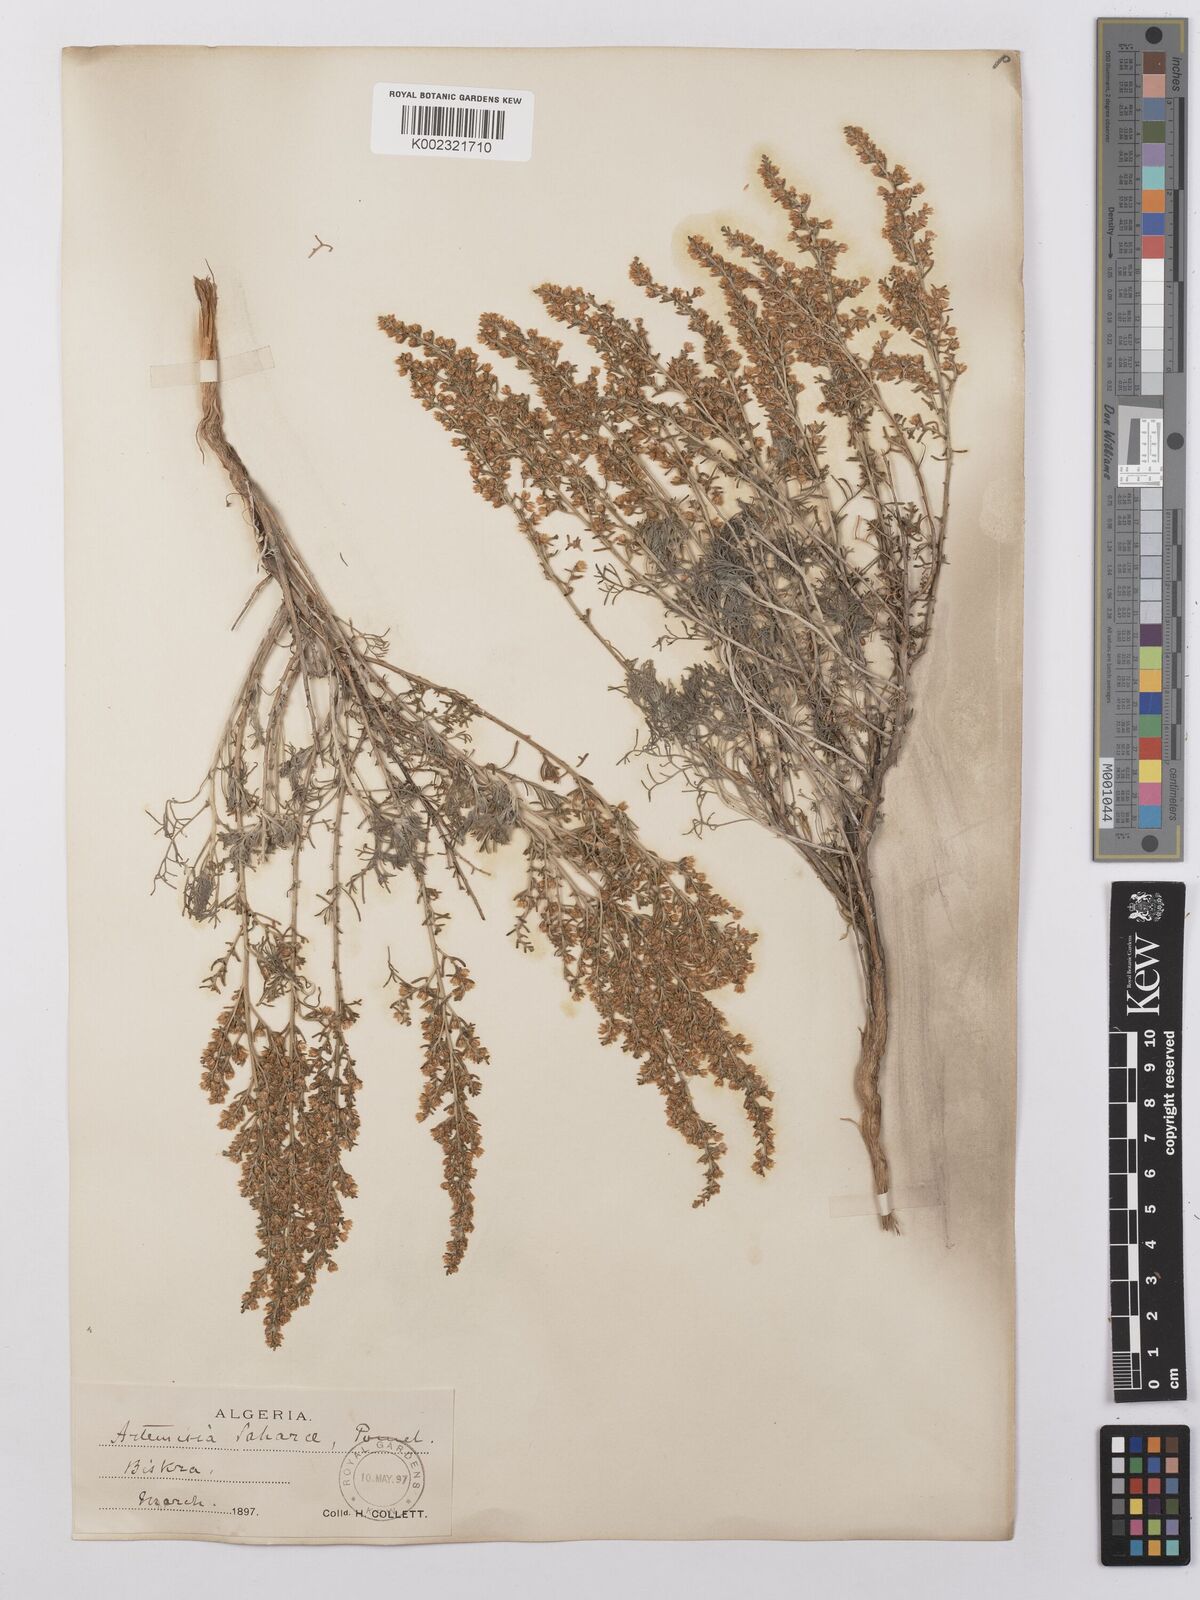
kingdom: Plantae
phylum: Tracheophyta
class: Magnoliopsida
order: Asterales
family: Asteraceae
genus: Artemisia
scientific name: Artemisia saharae
